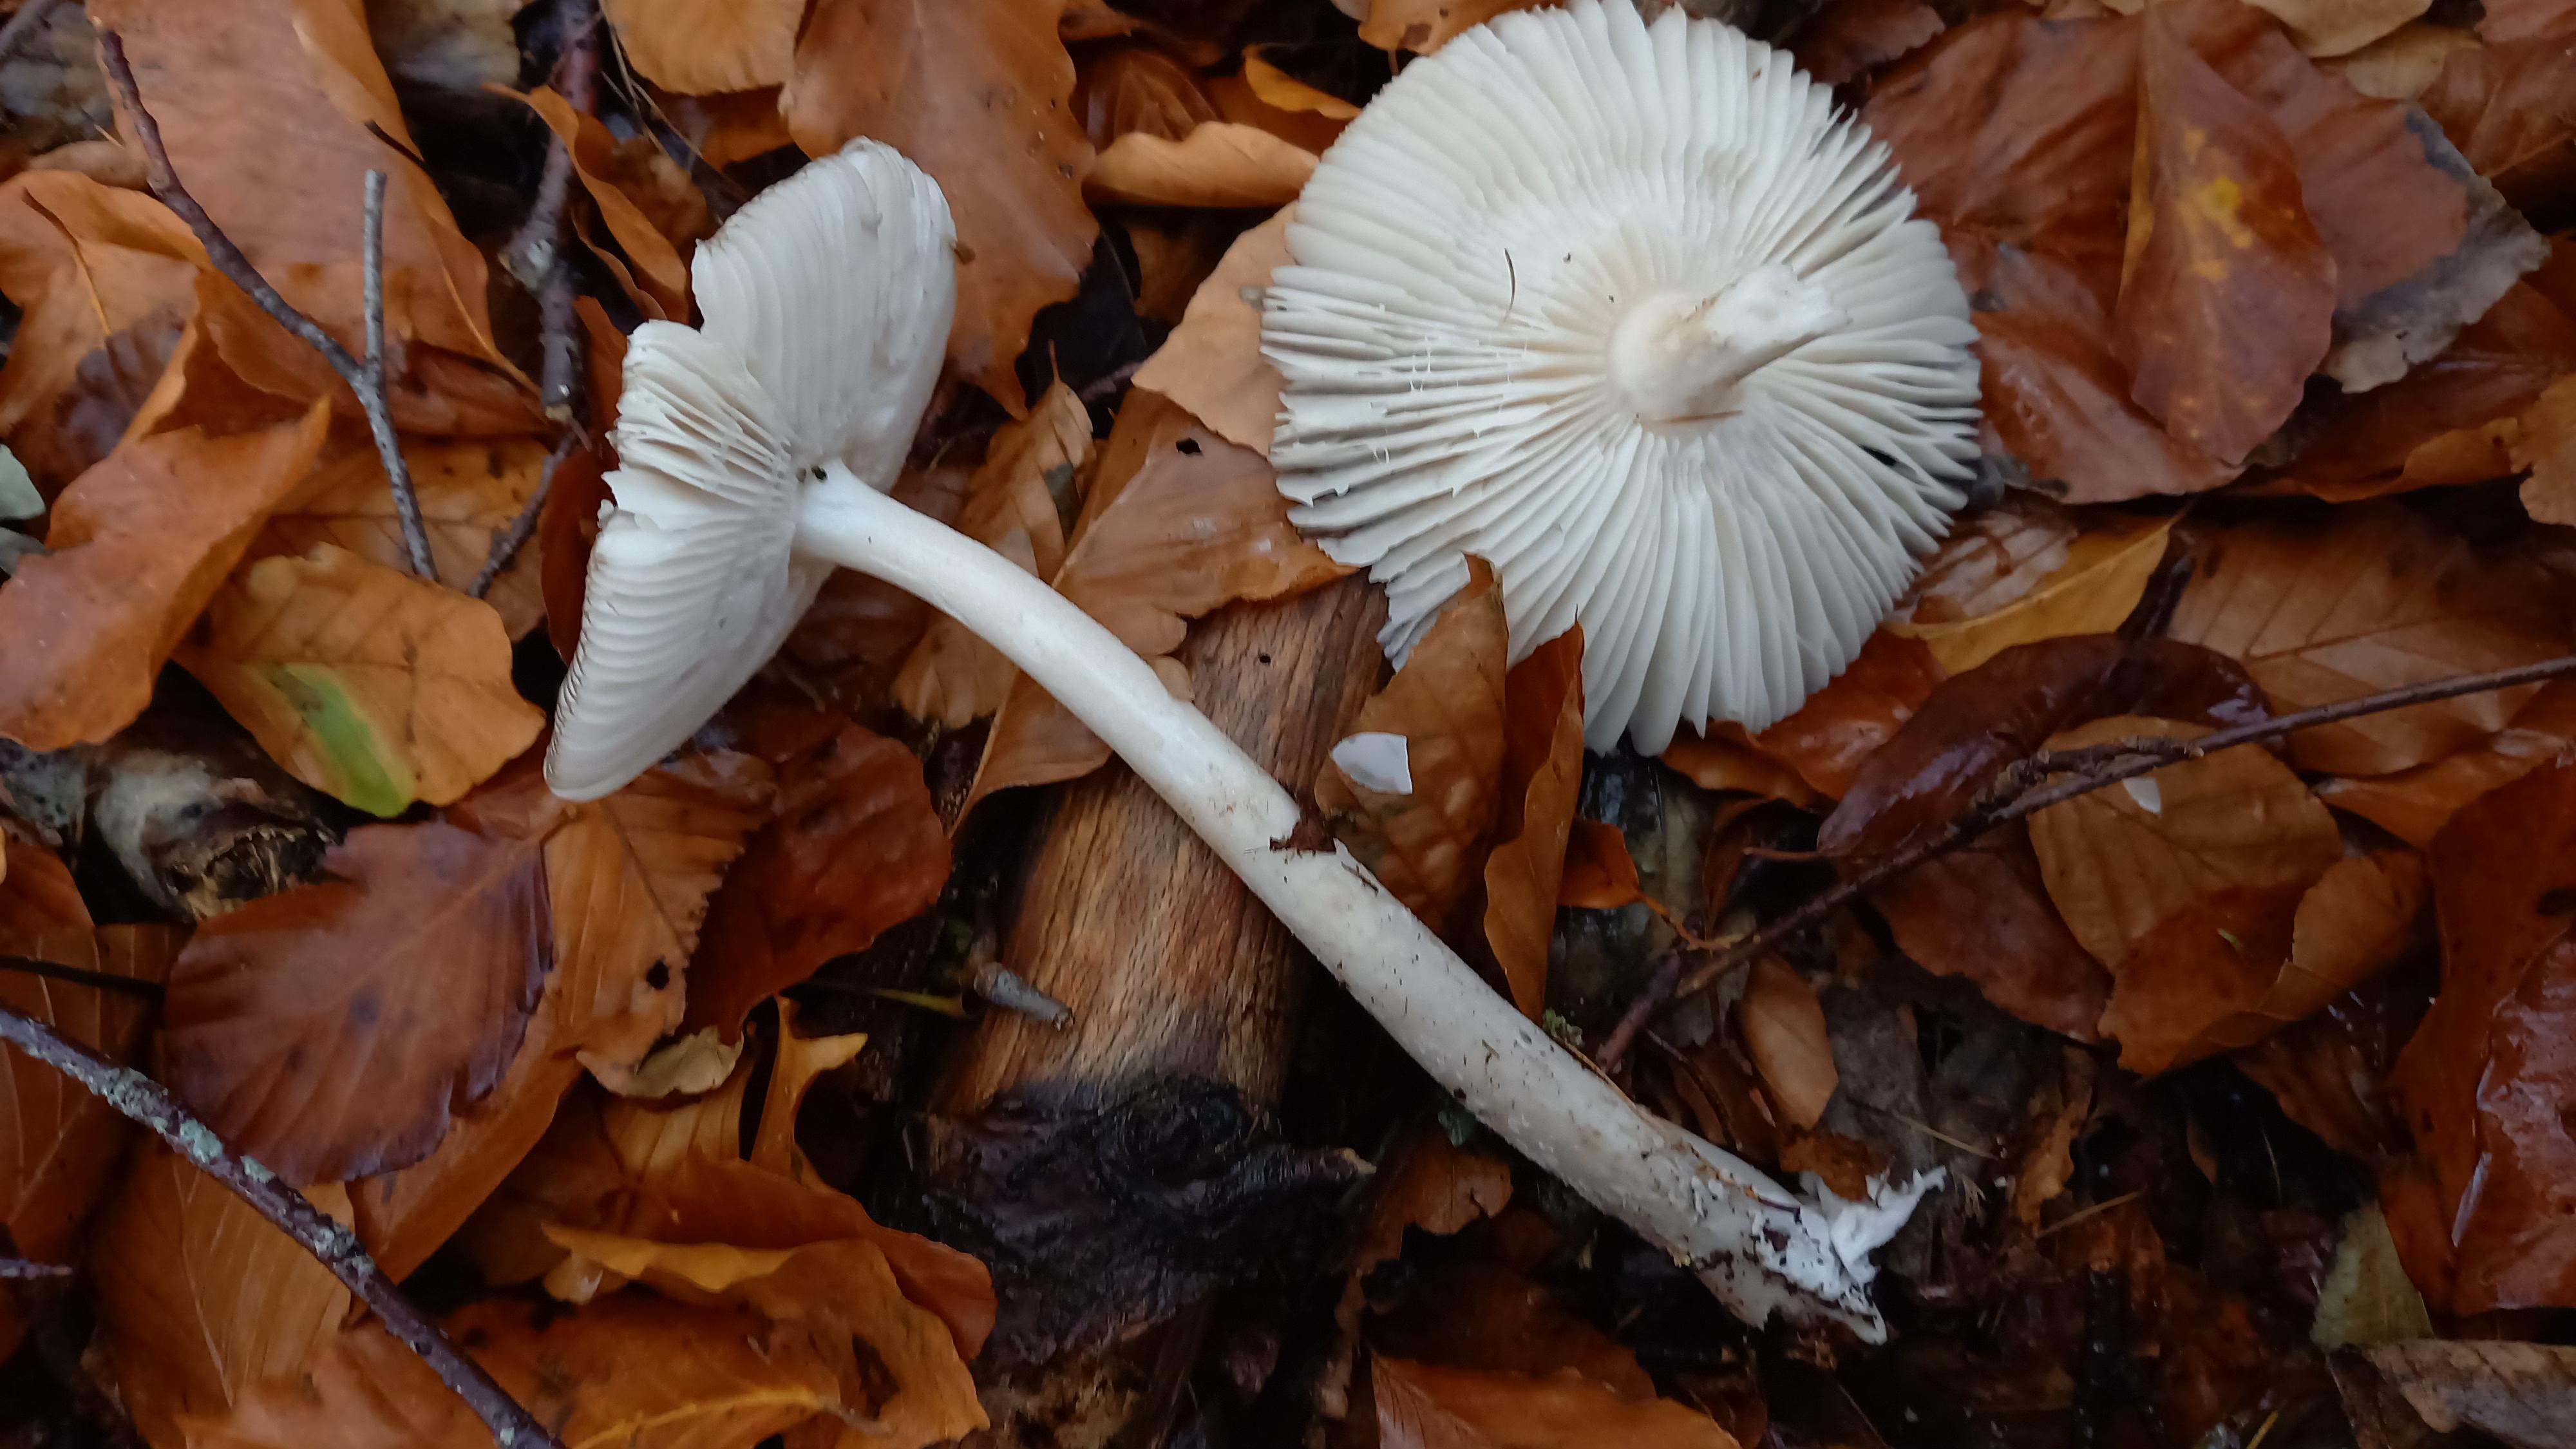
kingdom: Fungi
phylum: Basidiomycota
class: Agaricomycetes
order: Agaricales
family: Amanitaceae
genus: Amanita
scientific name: Amanita vaginata
